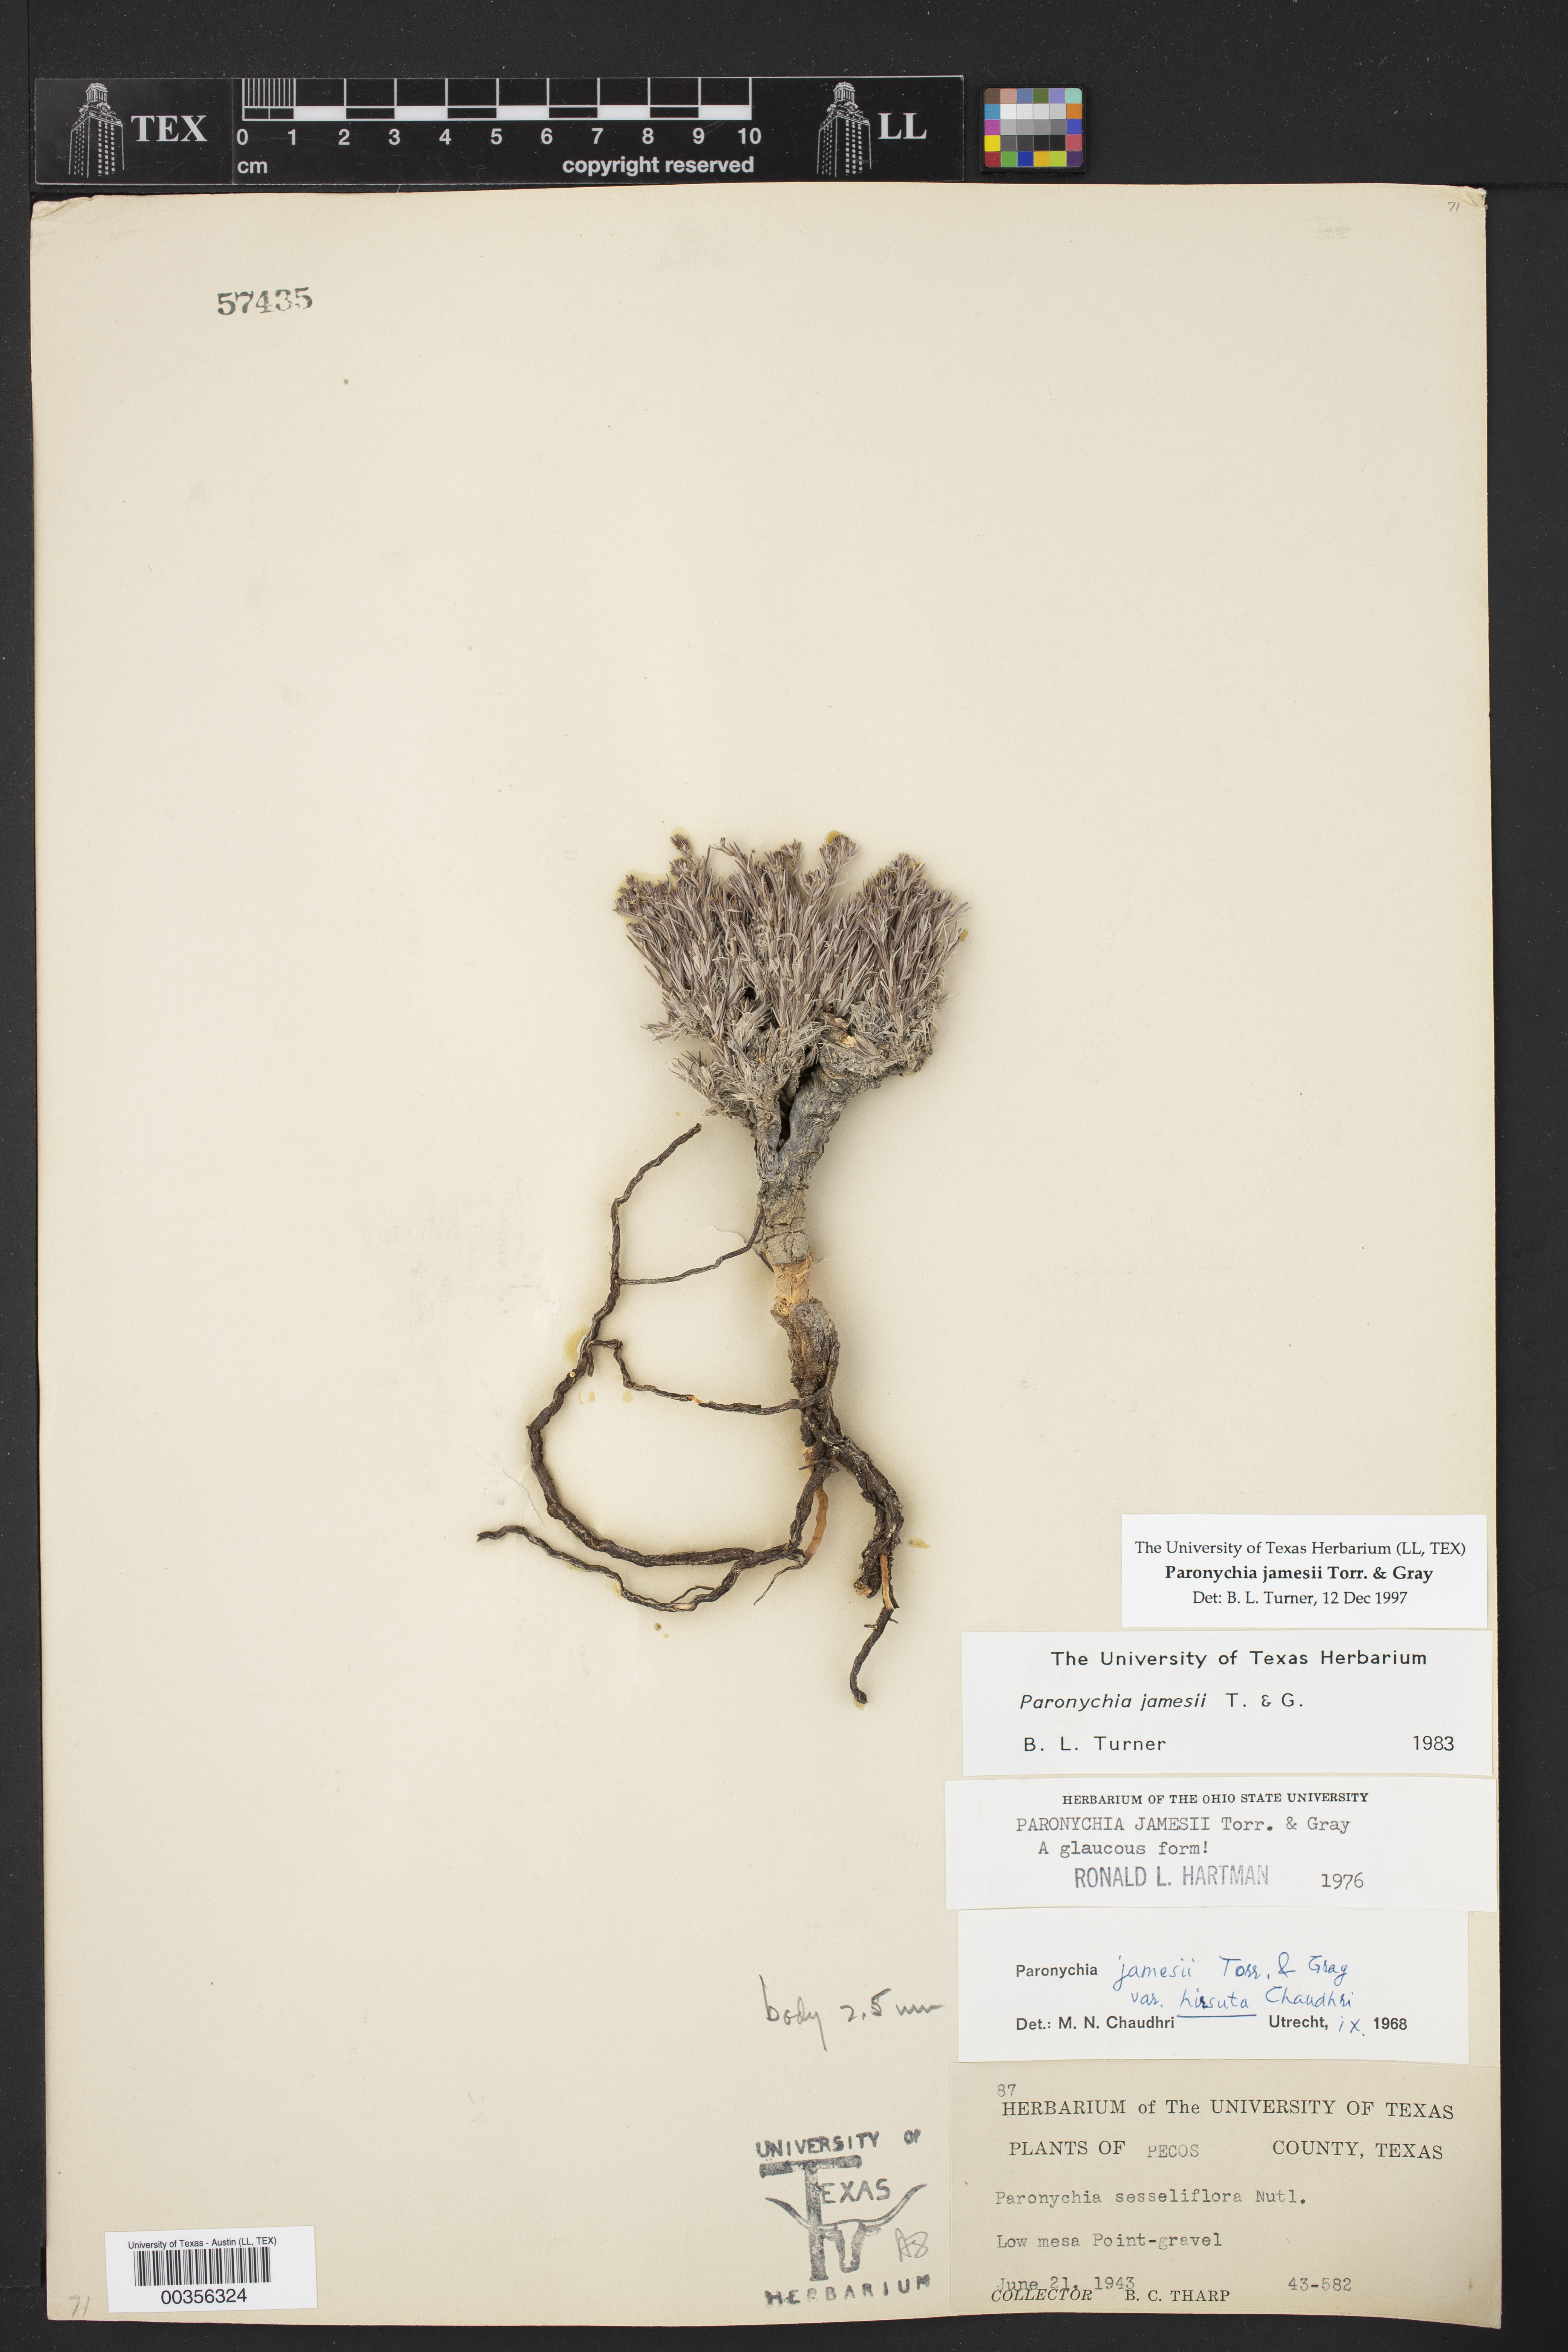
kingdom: Plantae
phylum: Tracheophyta
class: Magnoliopsida
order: Caryophyllales
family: Caryophyllaceae
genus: Paronychia
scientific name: Paronychia jamesii
